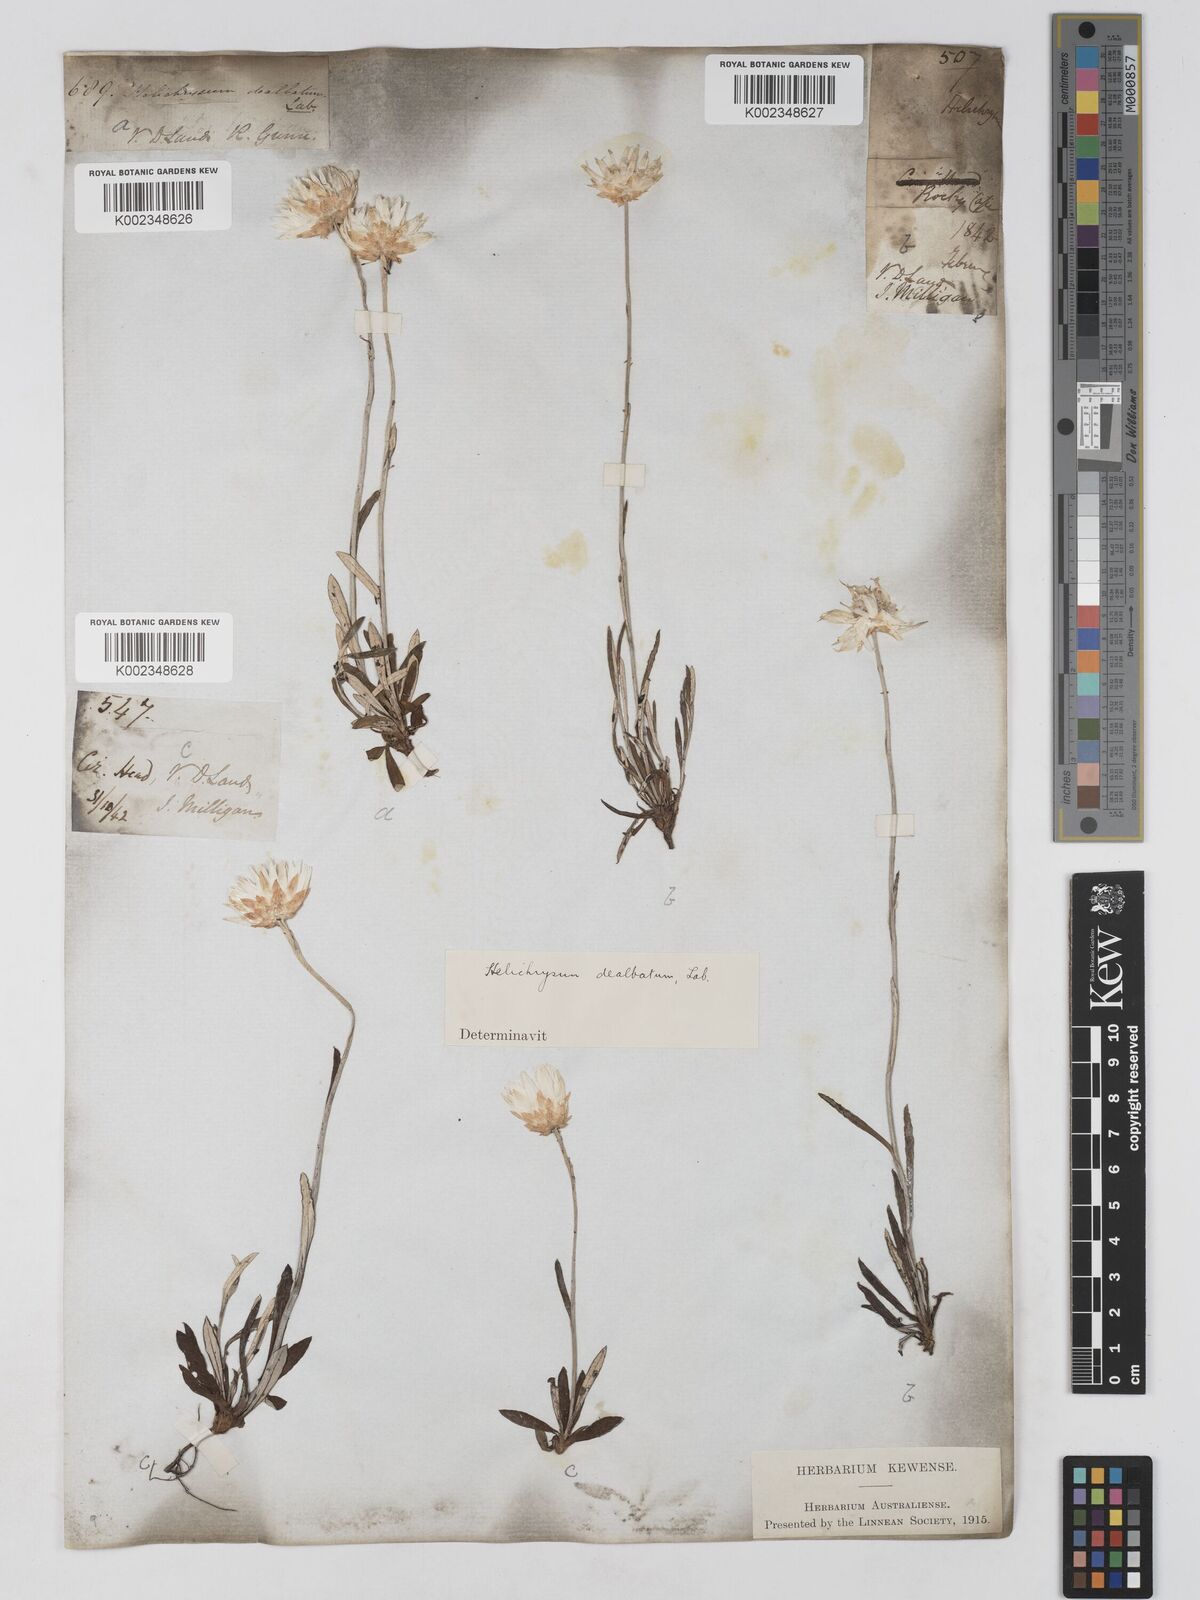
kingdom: Plantae
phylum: Tracheophyta
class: Magnoliopsida
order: Asterales
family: Asteraceae
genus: Argentipallium
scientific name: Argentipallium dealbatum
